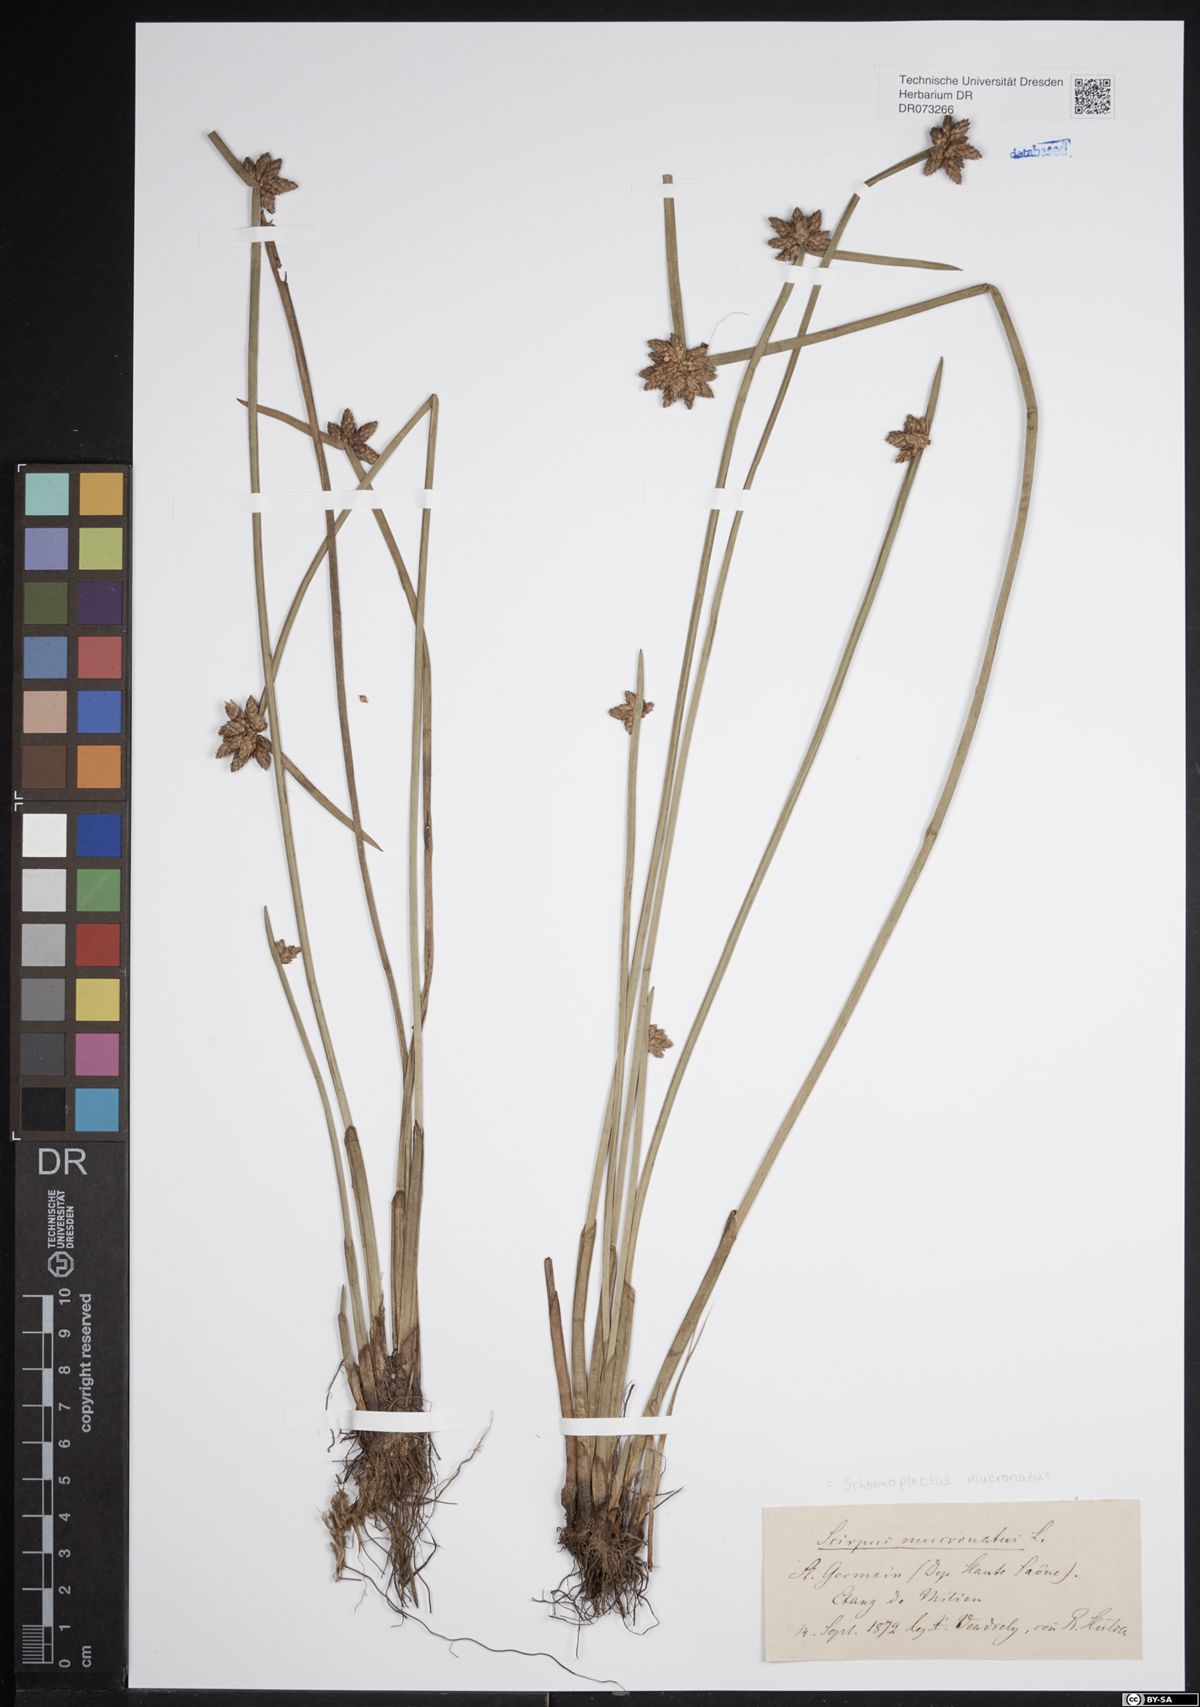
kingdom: Plantae
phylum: Tracheophyta
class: Liliopsida
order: Poales
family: Cyperaceae
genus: Schoenoplectiella
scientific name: Schoenoplectiella mucronata
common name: Bog bulrush
